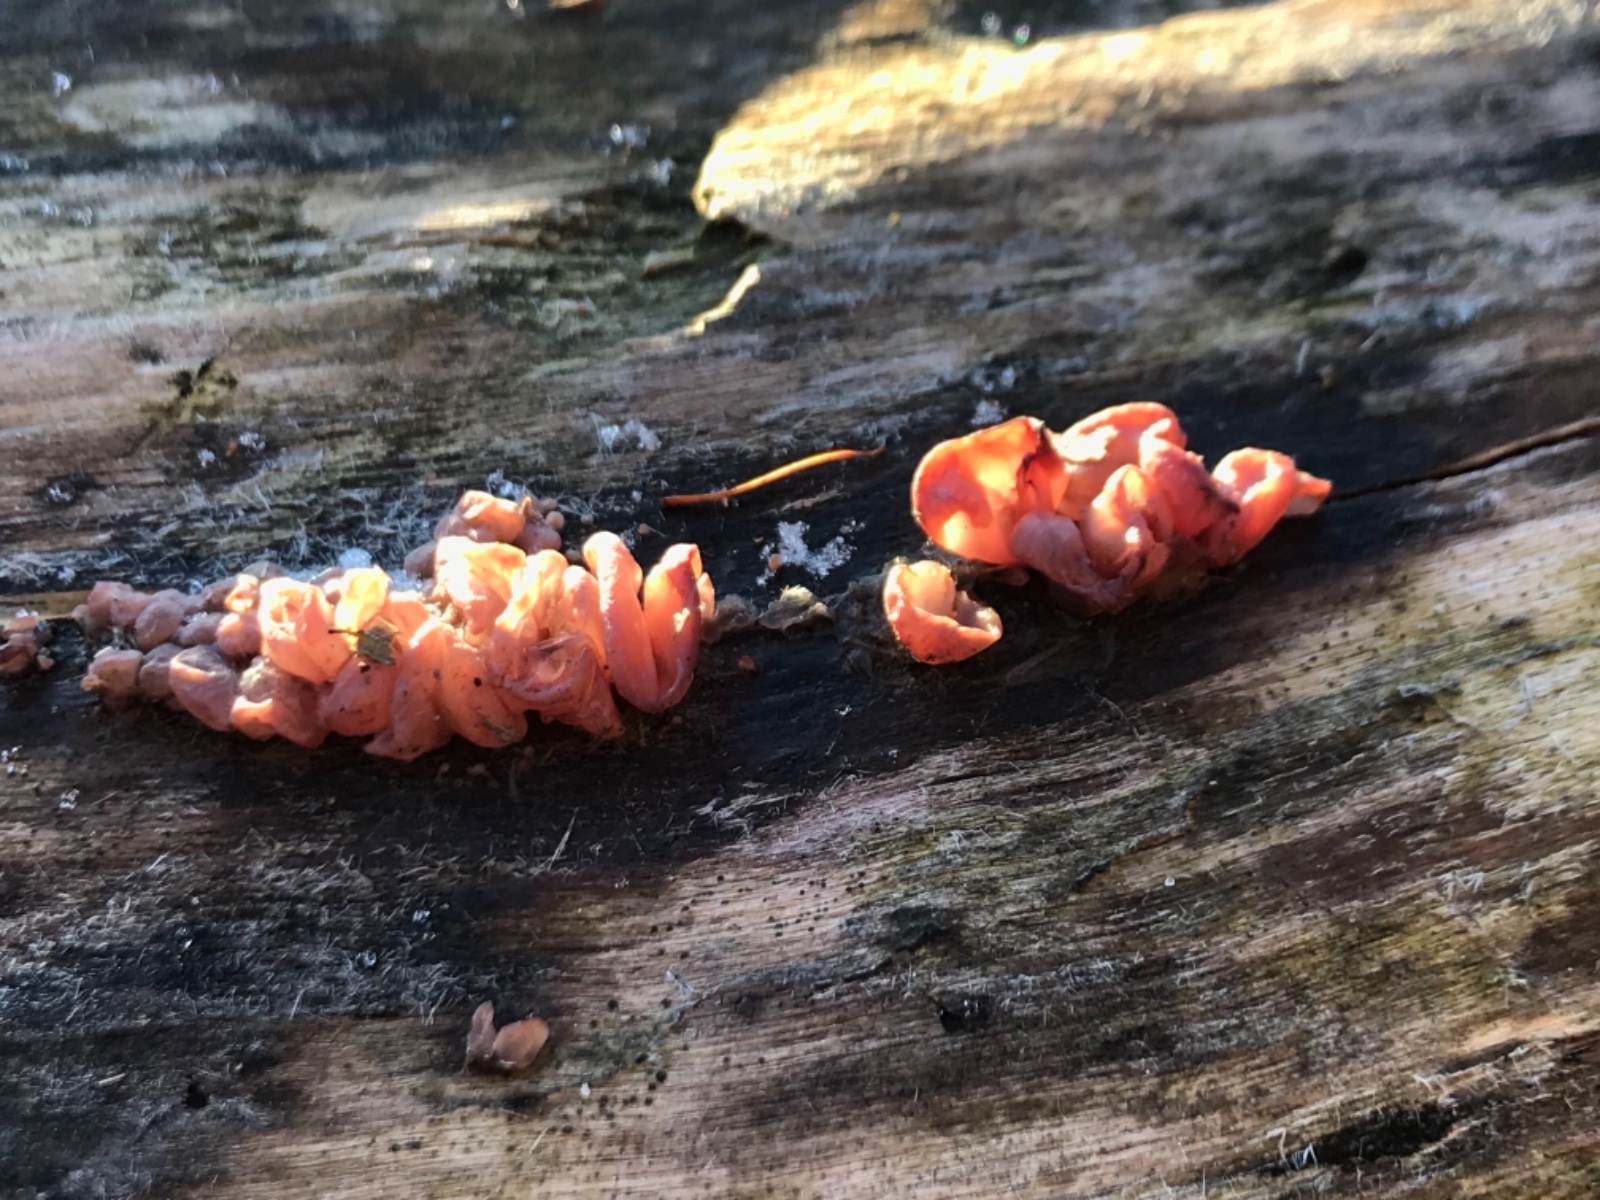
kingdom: Fungi
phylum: Basidiomycota
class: Agaricomycetes
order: Auriculariales
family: Auriculariaceae
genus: Auricularia
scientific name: Auricularia auricula-judae
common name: almindelig judasøre
